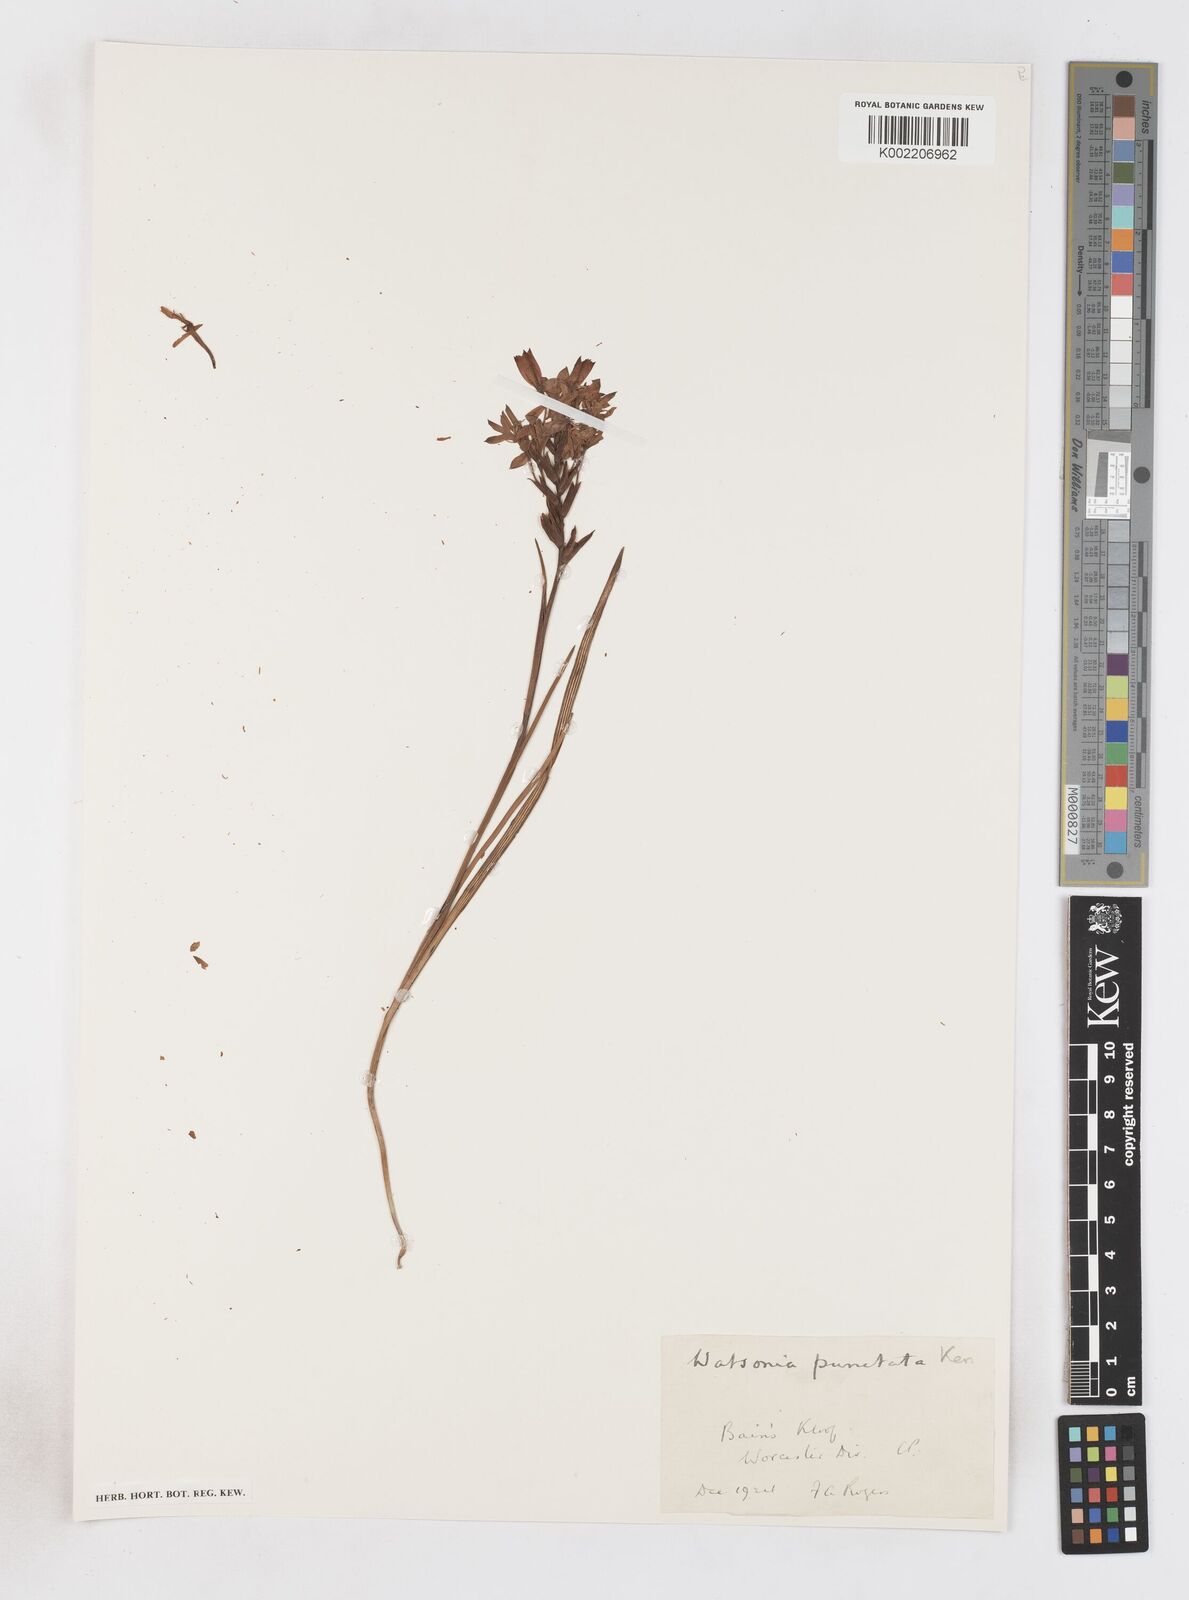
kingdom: Plantae
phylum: Tracheophyta
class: Liliopsida
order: Asparagales
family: Iridaceae
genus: Thereianthus
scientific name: Thereianthus spicatus
